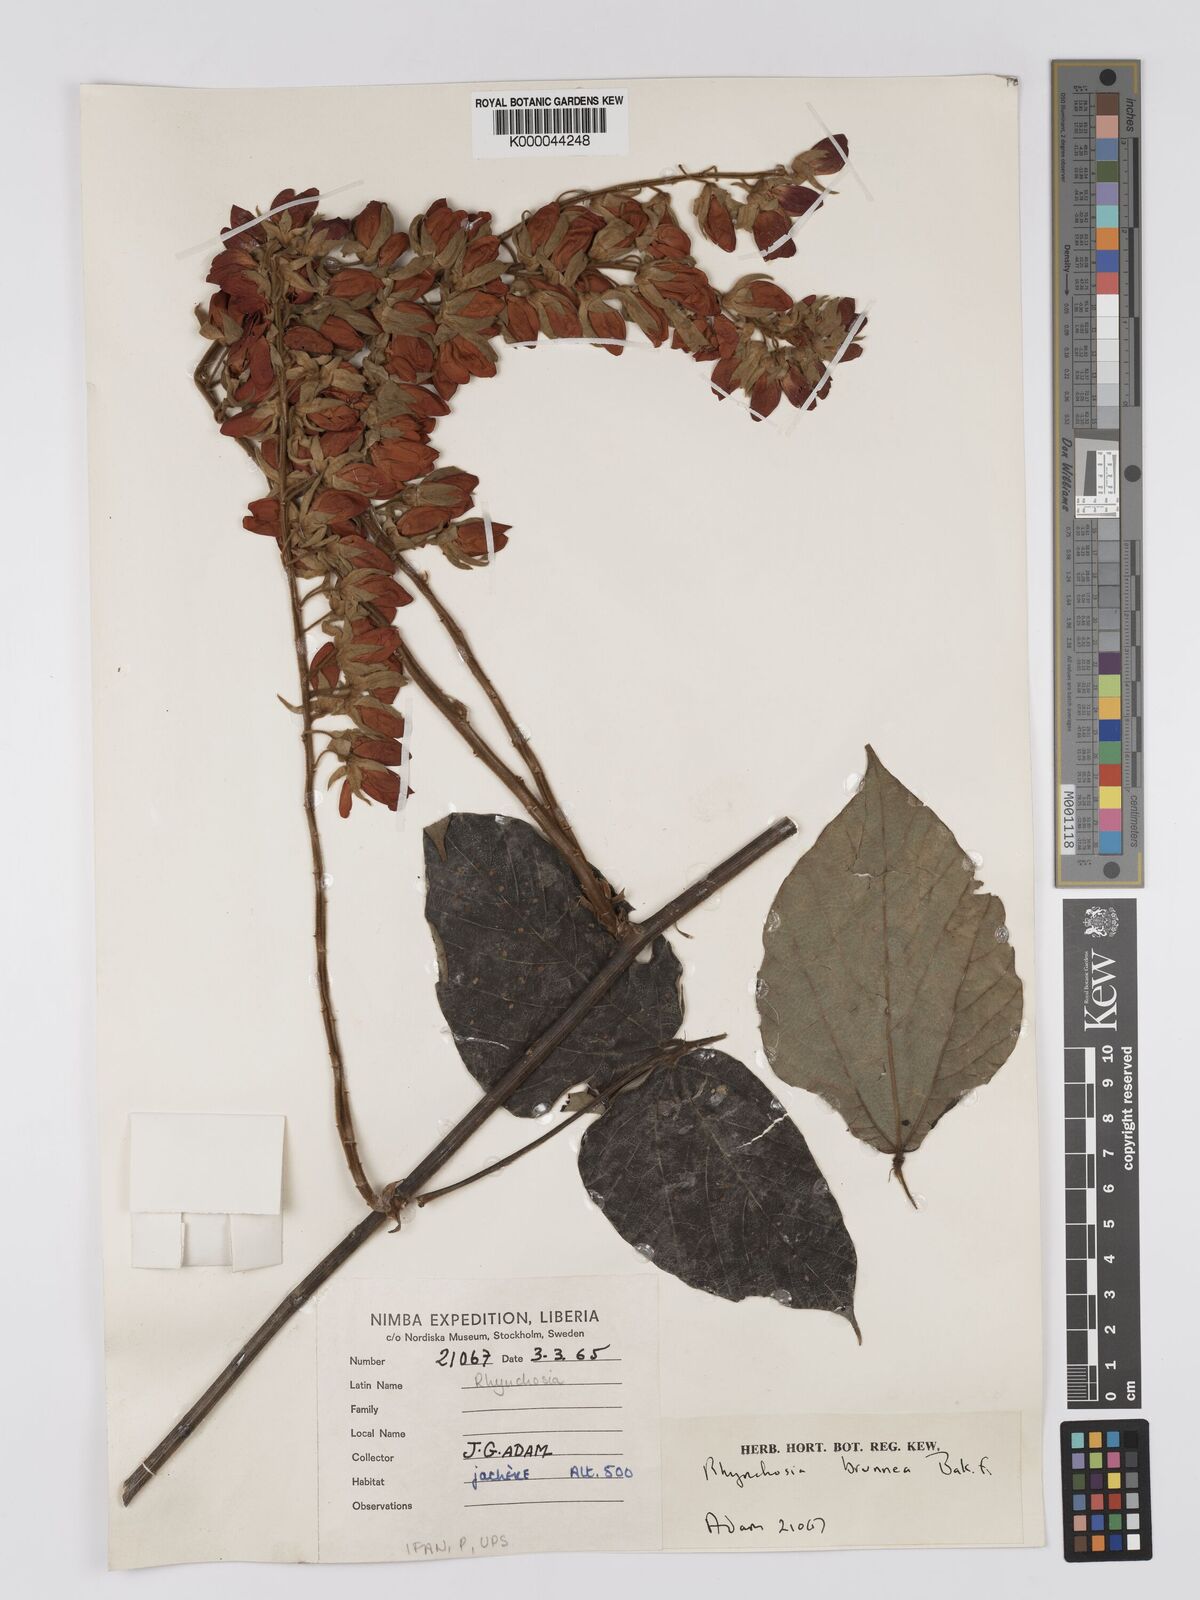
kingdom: Plantae
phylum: Tracheophyta
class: Magnoliopsida
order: Fabales
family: Fabaceae
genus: Rhynchosia
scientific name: Rhynchosia brunnea
